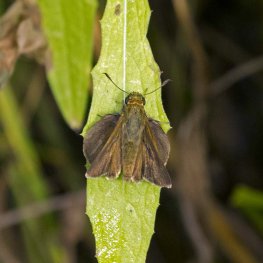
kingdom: Animalia
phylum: Arthropoda
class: Insecta
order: Lepidoptera
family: Hesperiidae
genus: Euphyes
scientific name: Euphyes vestris
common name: Dun Skipper
